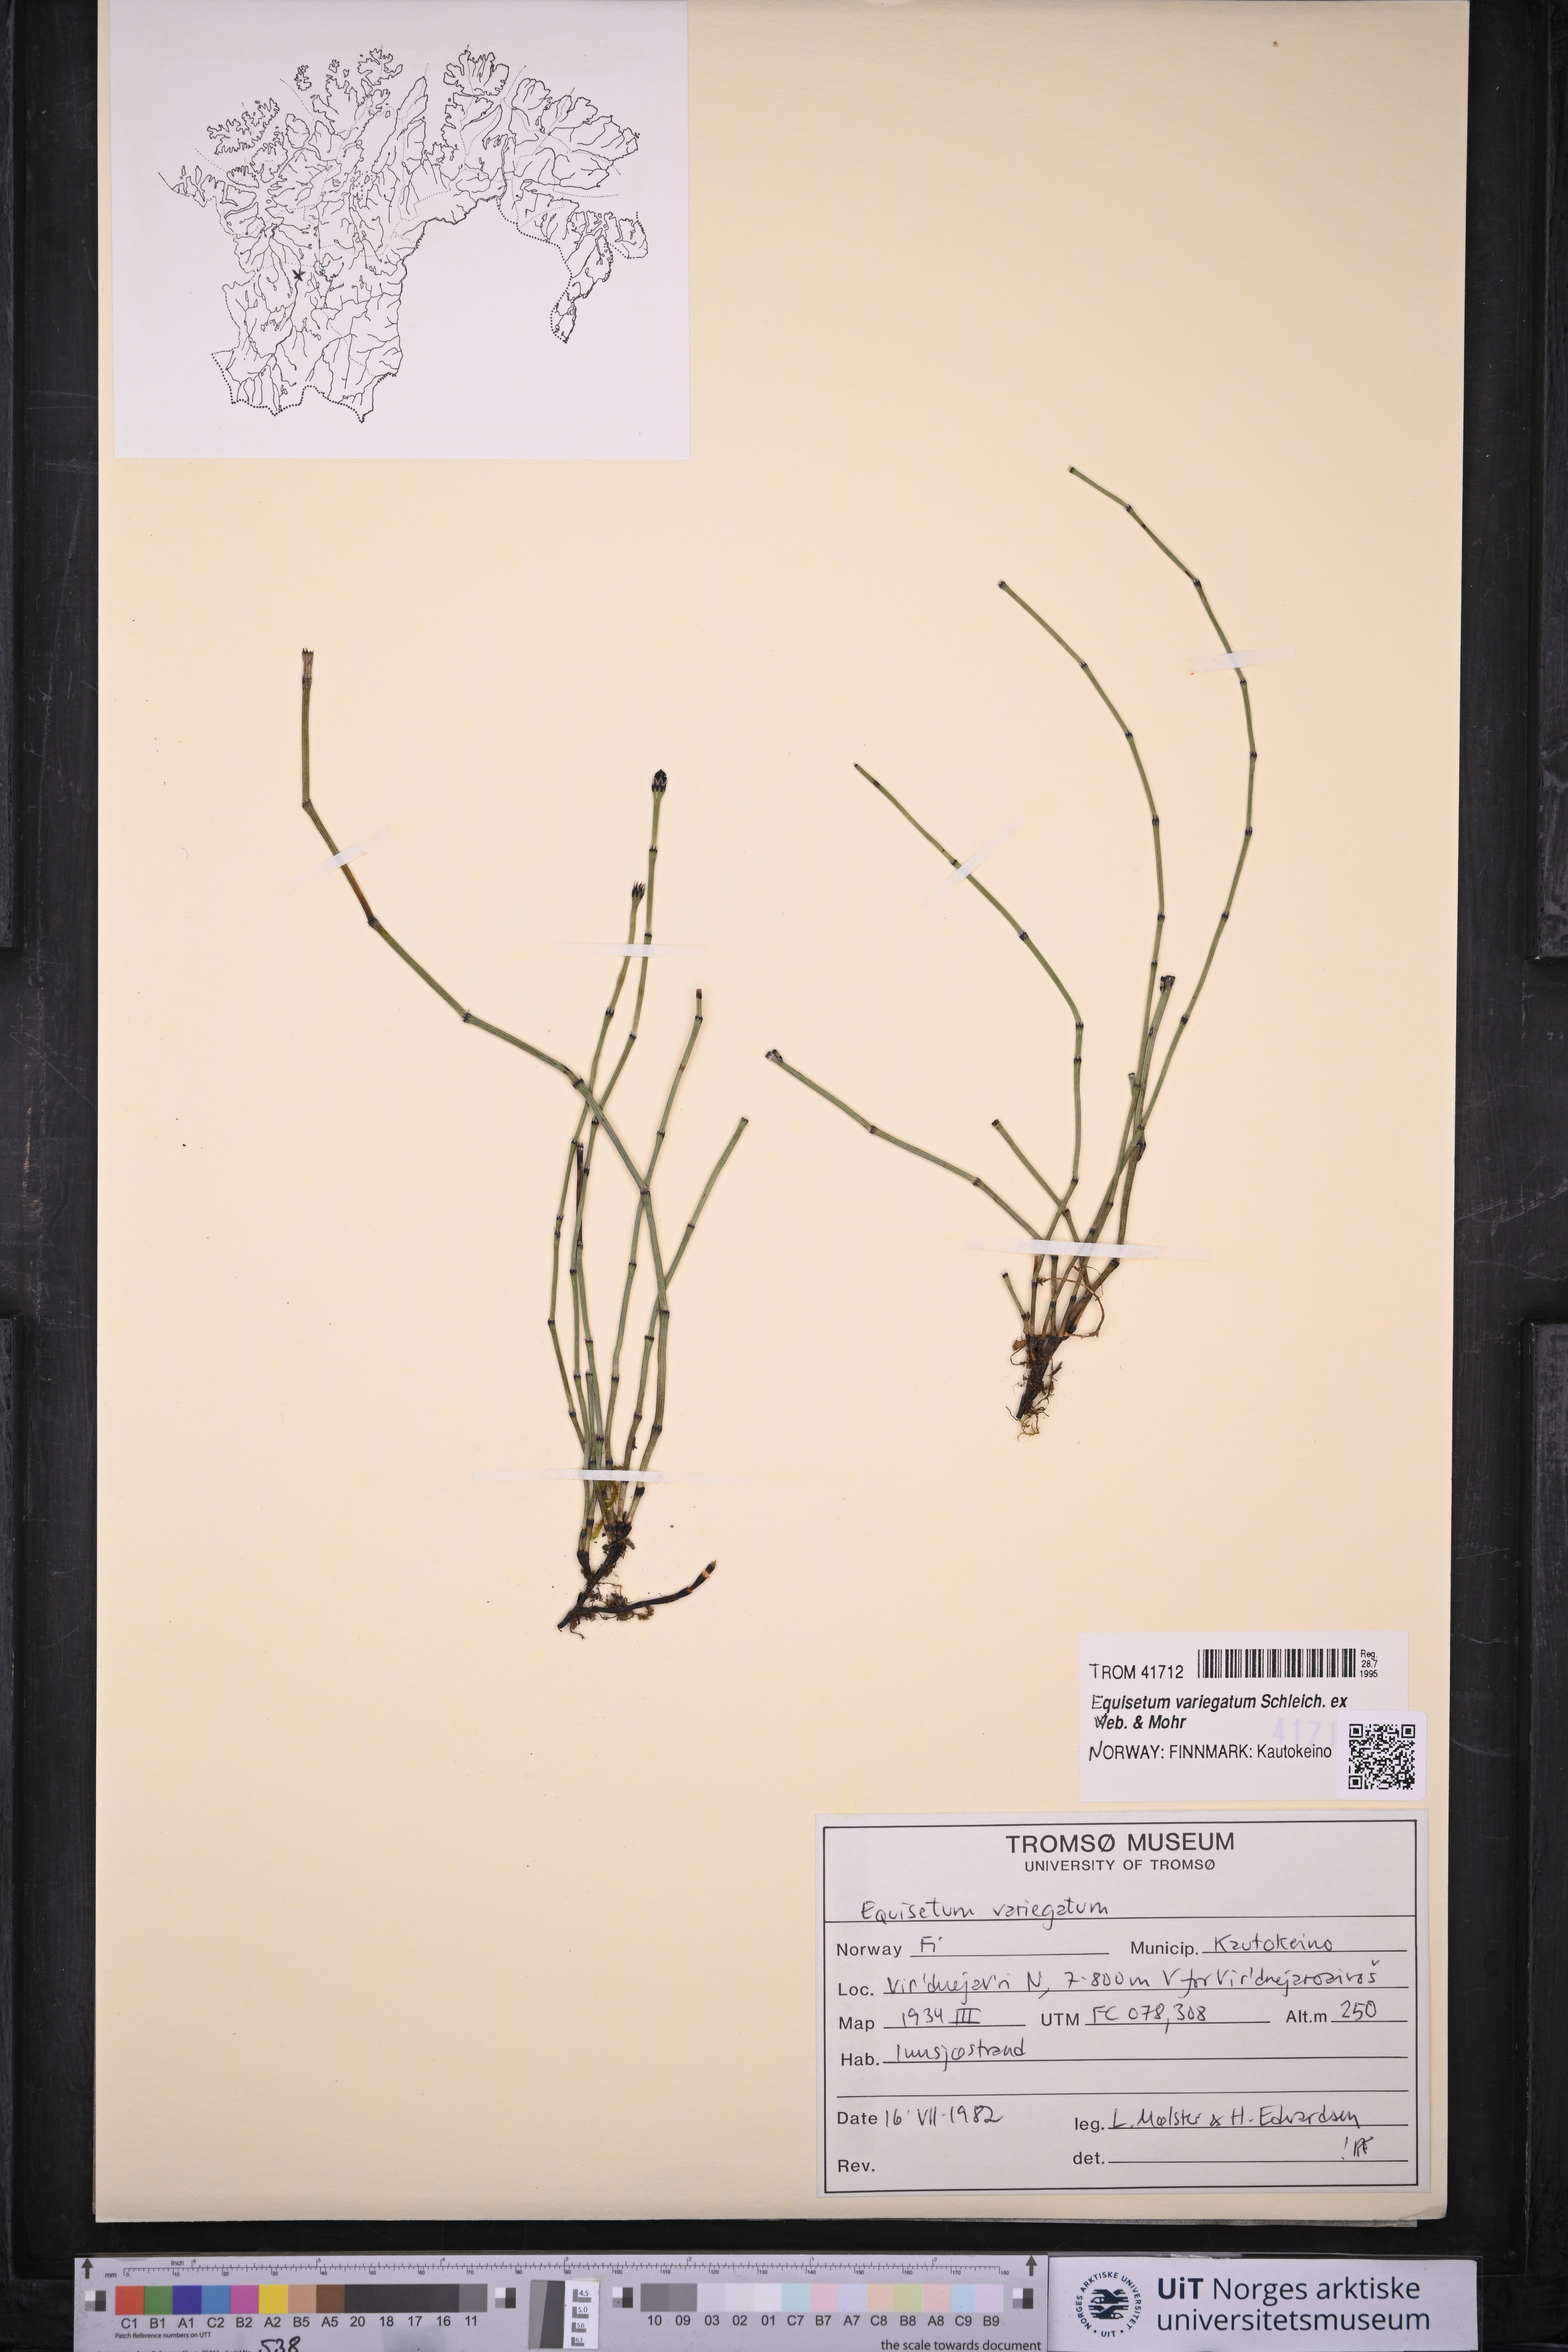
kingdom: Plantae
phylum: Tracheophyta
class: Polypodiopsida
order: Equisetales
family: Equisetaceae
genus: Equisetum
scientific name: Equisetum variegatum
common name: Variegated horsetail
